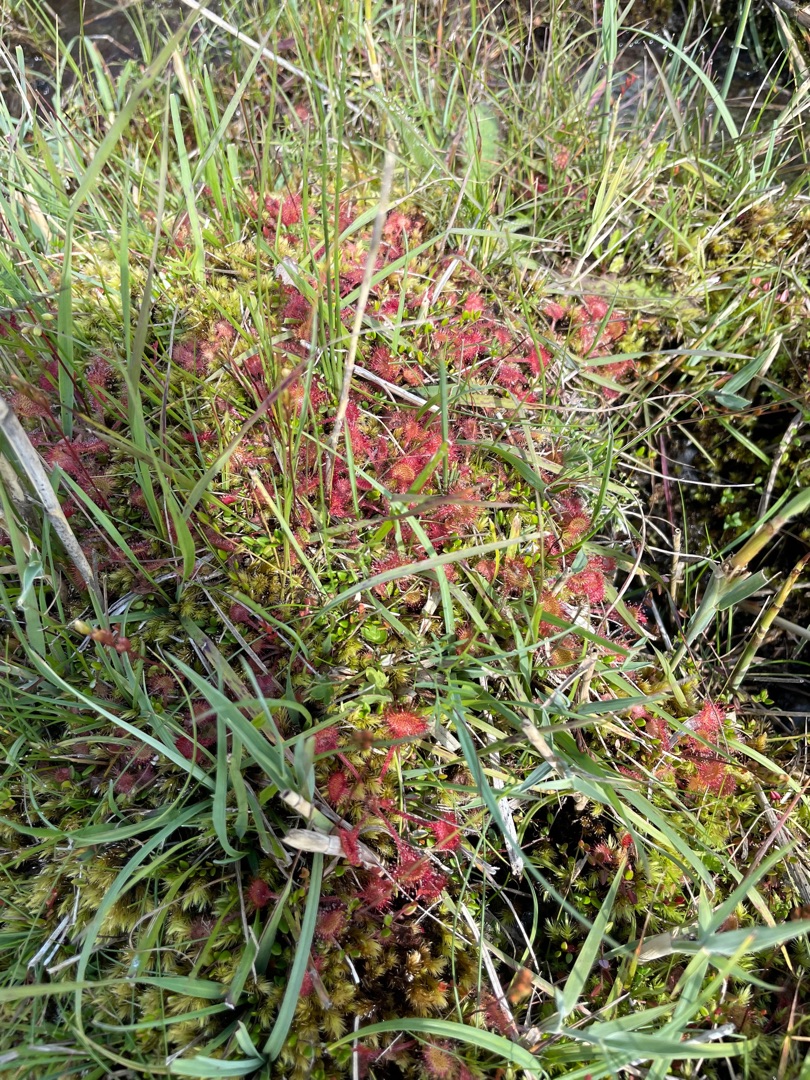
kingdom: Plantae
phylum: Tracheophyta
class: Magnoliopsida
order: Caryophyllales
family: Droseraceae
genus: Drosera
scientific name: Drosera rotundifolia
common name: Rundbladet soldug
